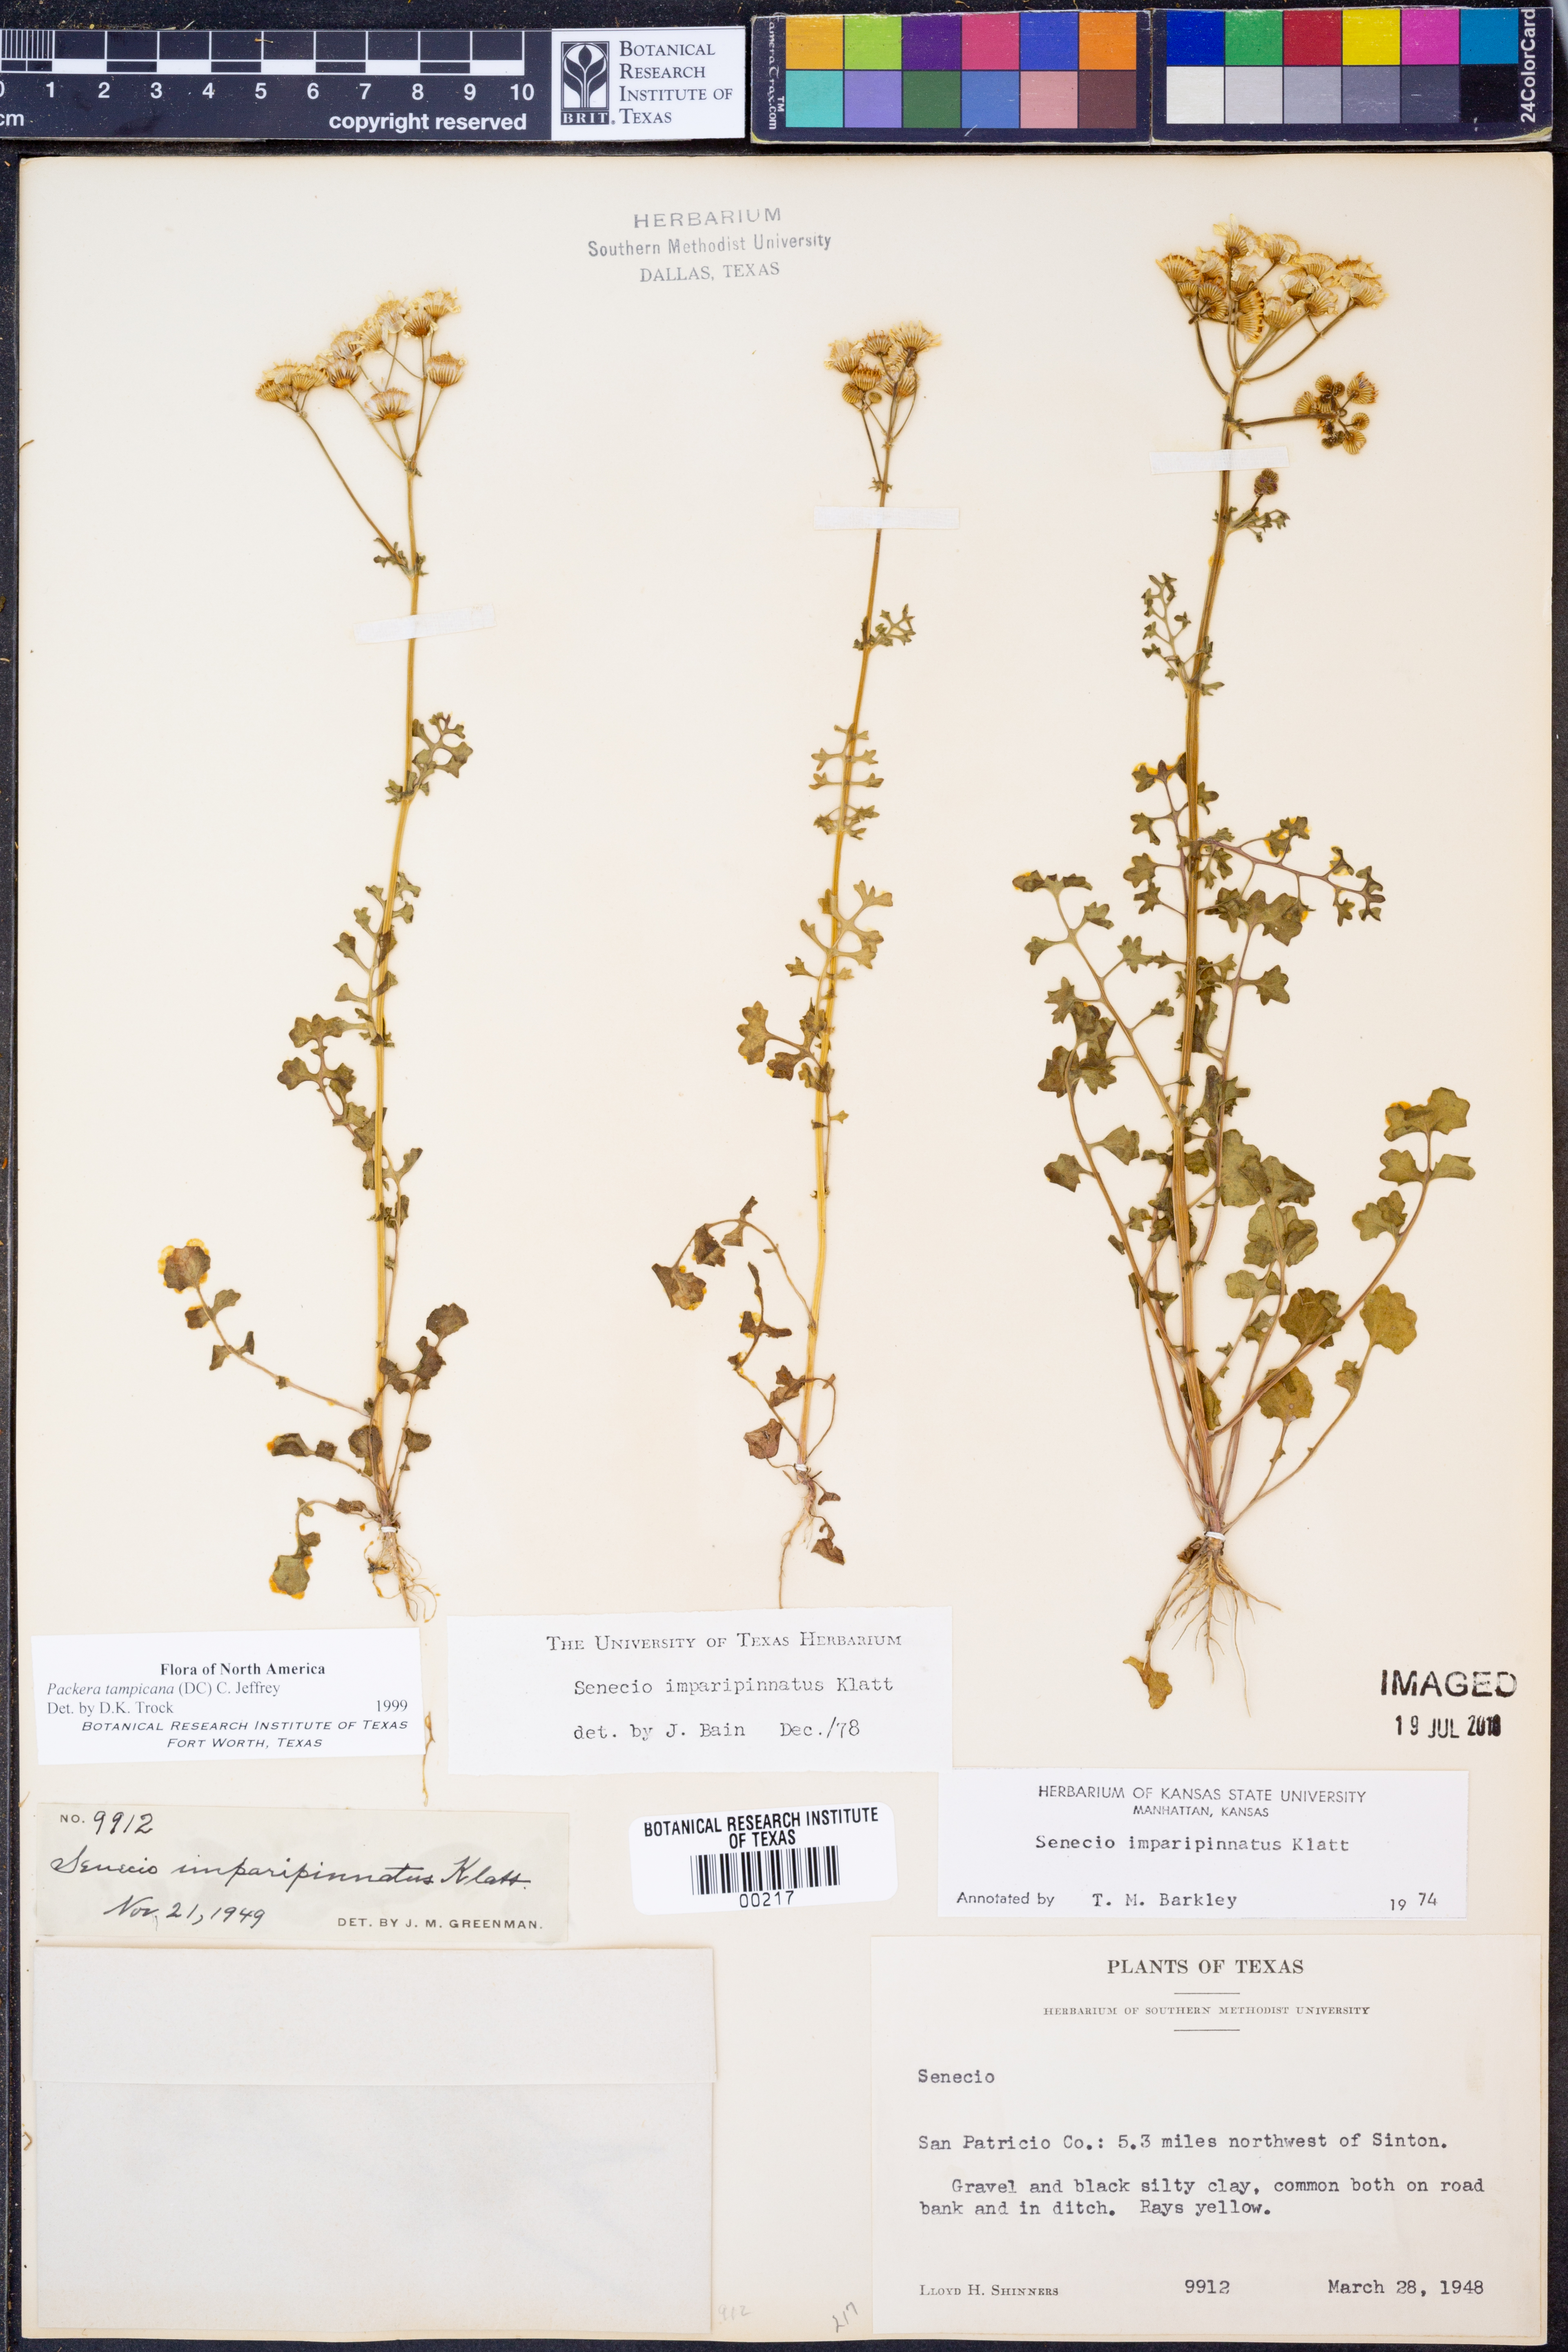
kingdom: Plantae
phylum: Tracheophyta
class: Magnoliopsida
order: Asterales
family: Asteraceae
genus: Packera
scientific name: Packera tampicana
